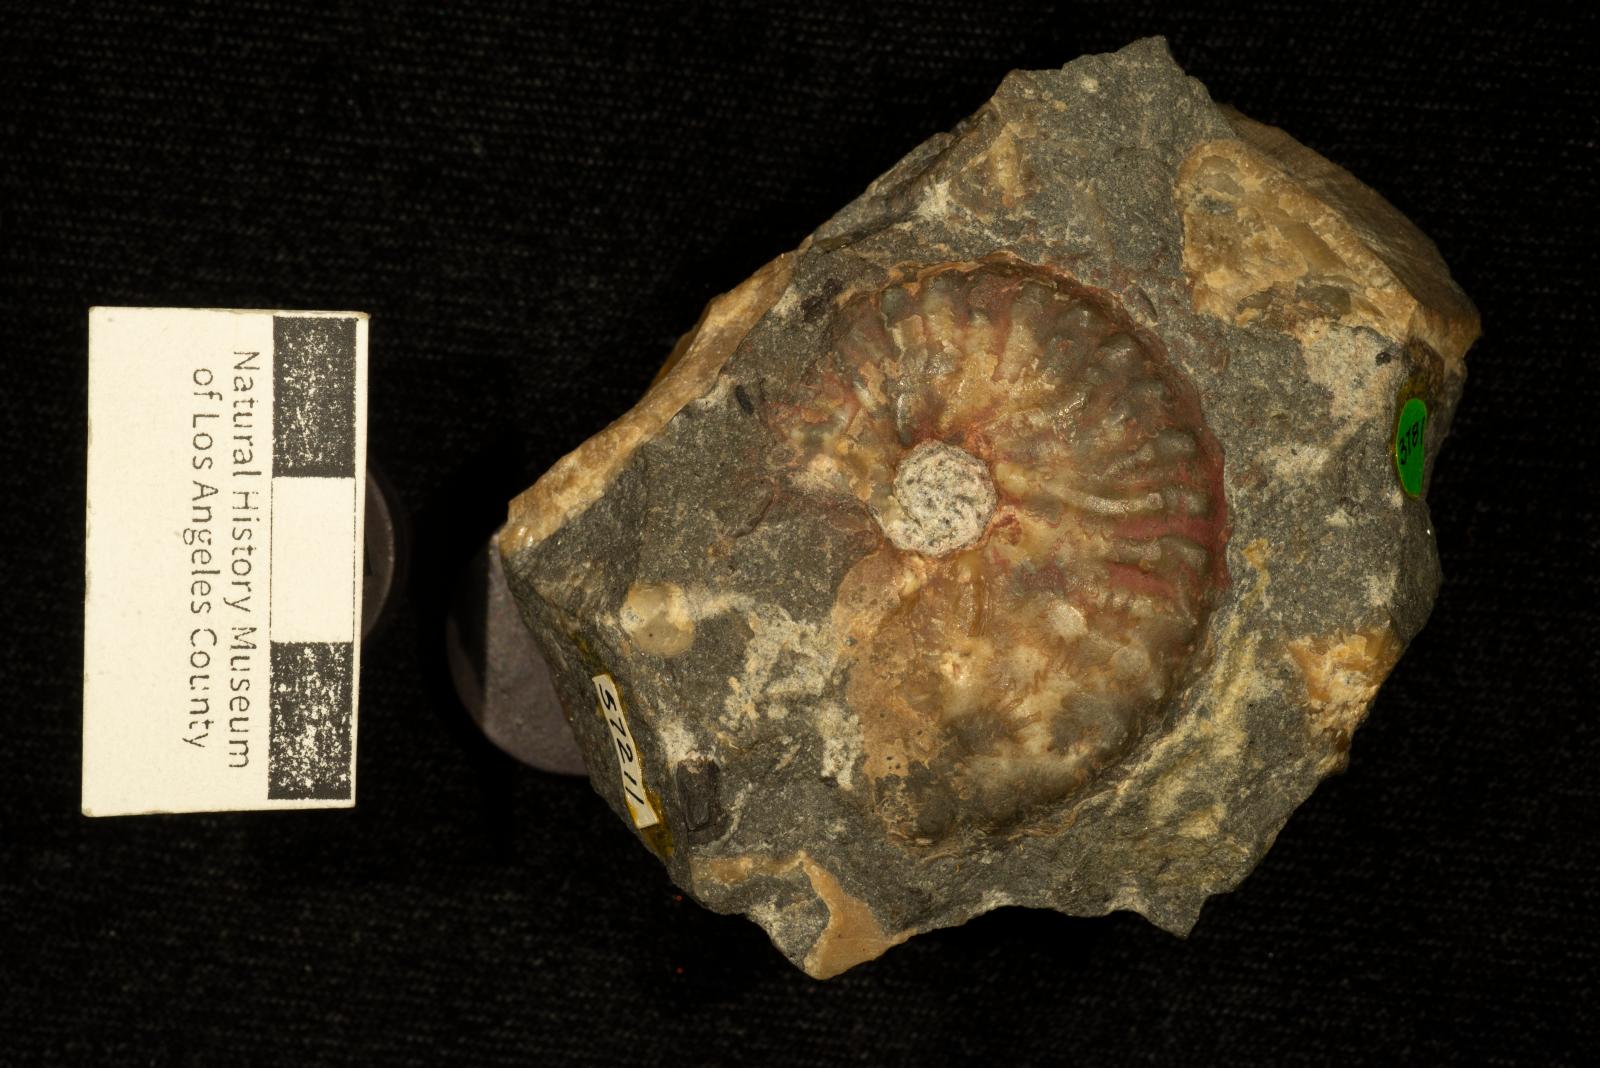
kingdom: Animalia
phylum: Mollusca
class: Cephalopoda
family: Collignoniceratidae
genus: Subprionocyclus
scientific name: Subprionocyclus
